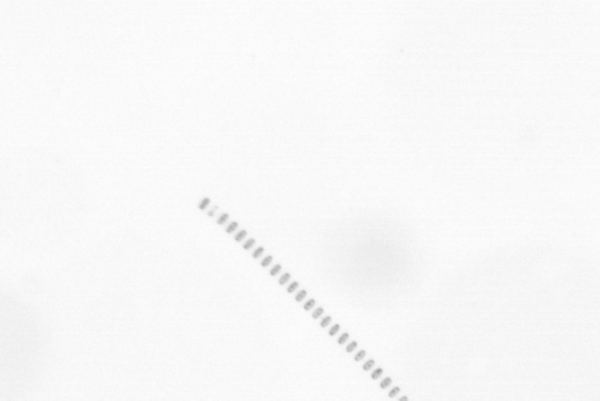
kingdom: Chromista
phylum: Ochrophyta
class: Bacillariophyceae
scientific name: Bacillariophyceae
